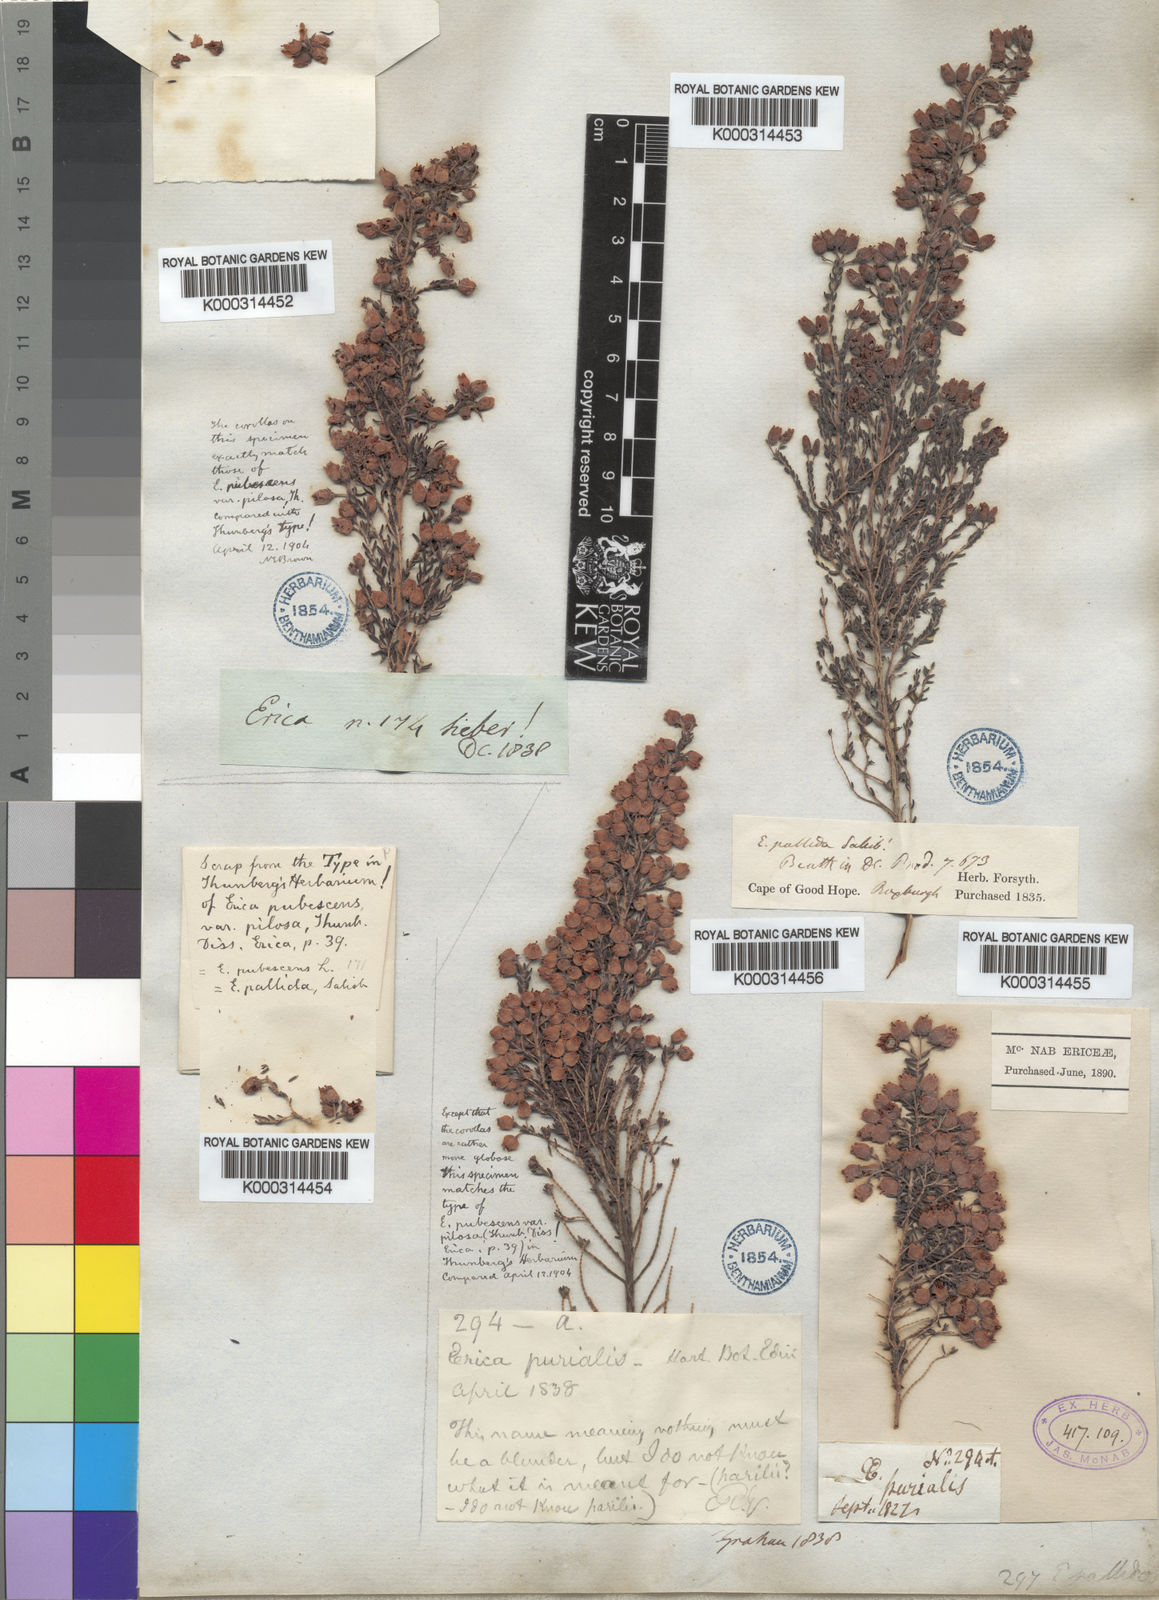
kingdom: Plantae
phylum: Tracheophyta
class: Magnoliopsida
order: Ericales
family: Ericaceae
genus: Erica
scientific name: Erica pubescens
